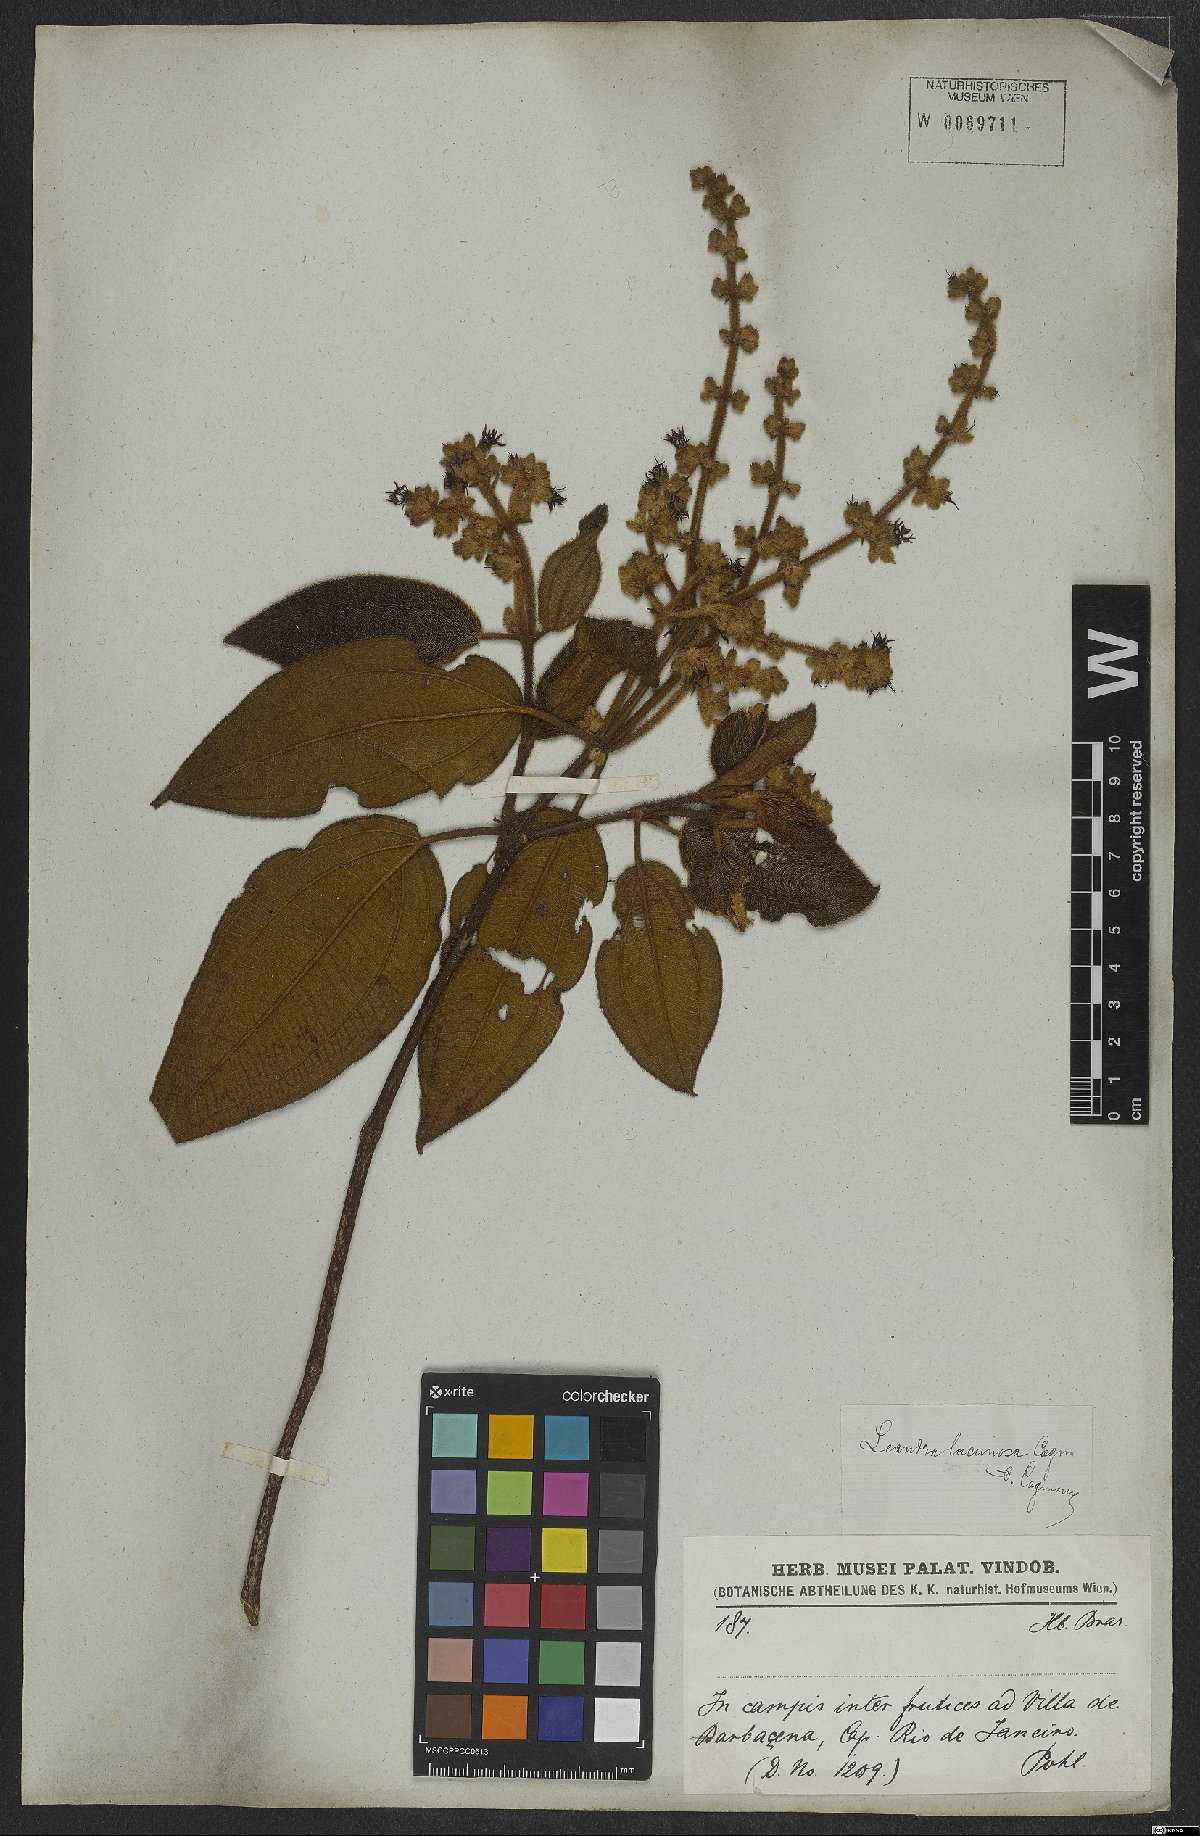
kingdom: Plantae
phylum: Tracheophyta
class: Magnoliopsida
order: Myrtales
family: Melastomataceae
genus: Miconia
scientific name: Miconia lacunosa
